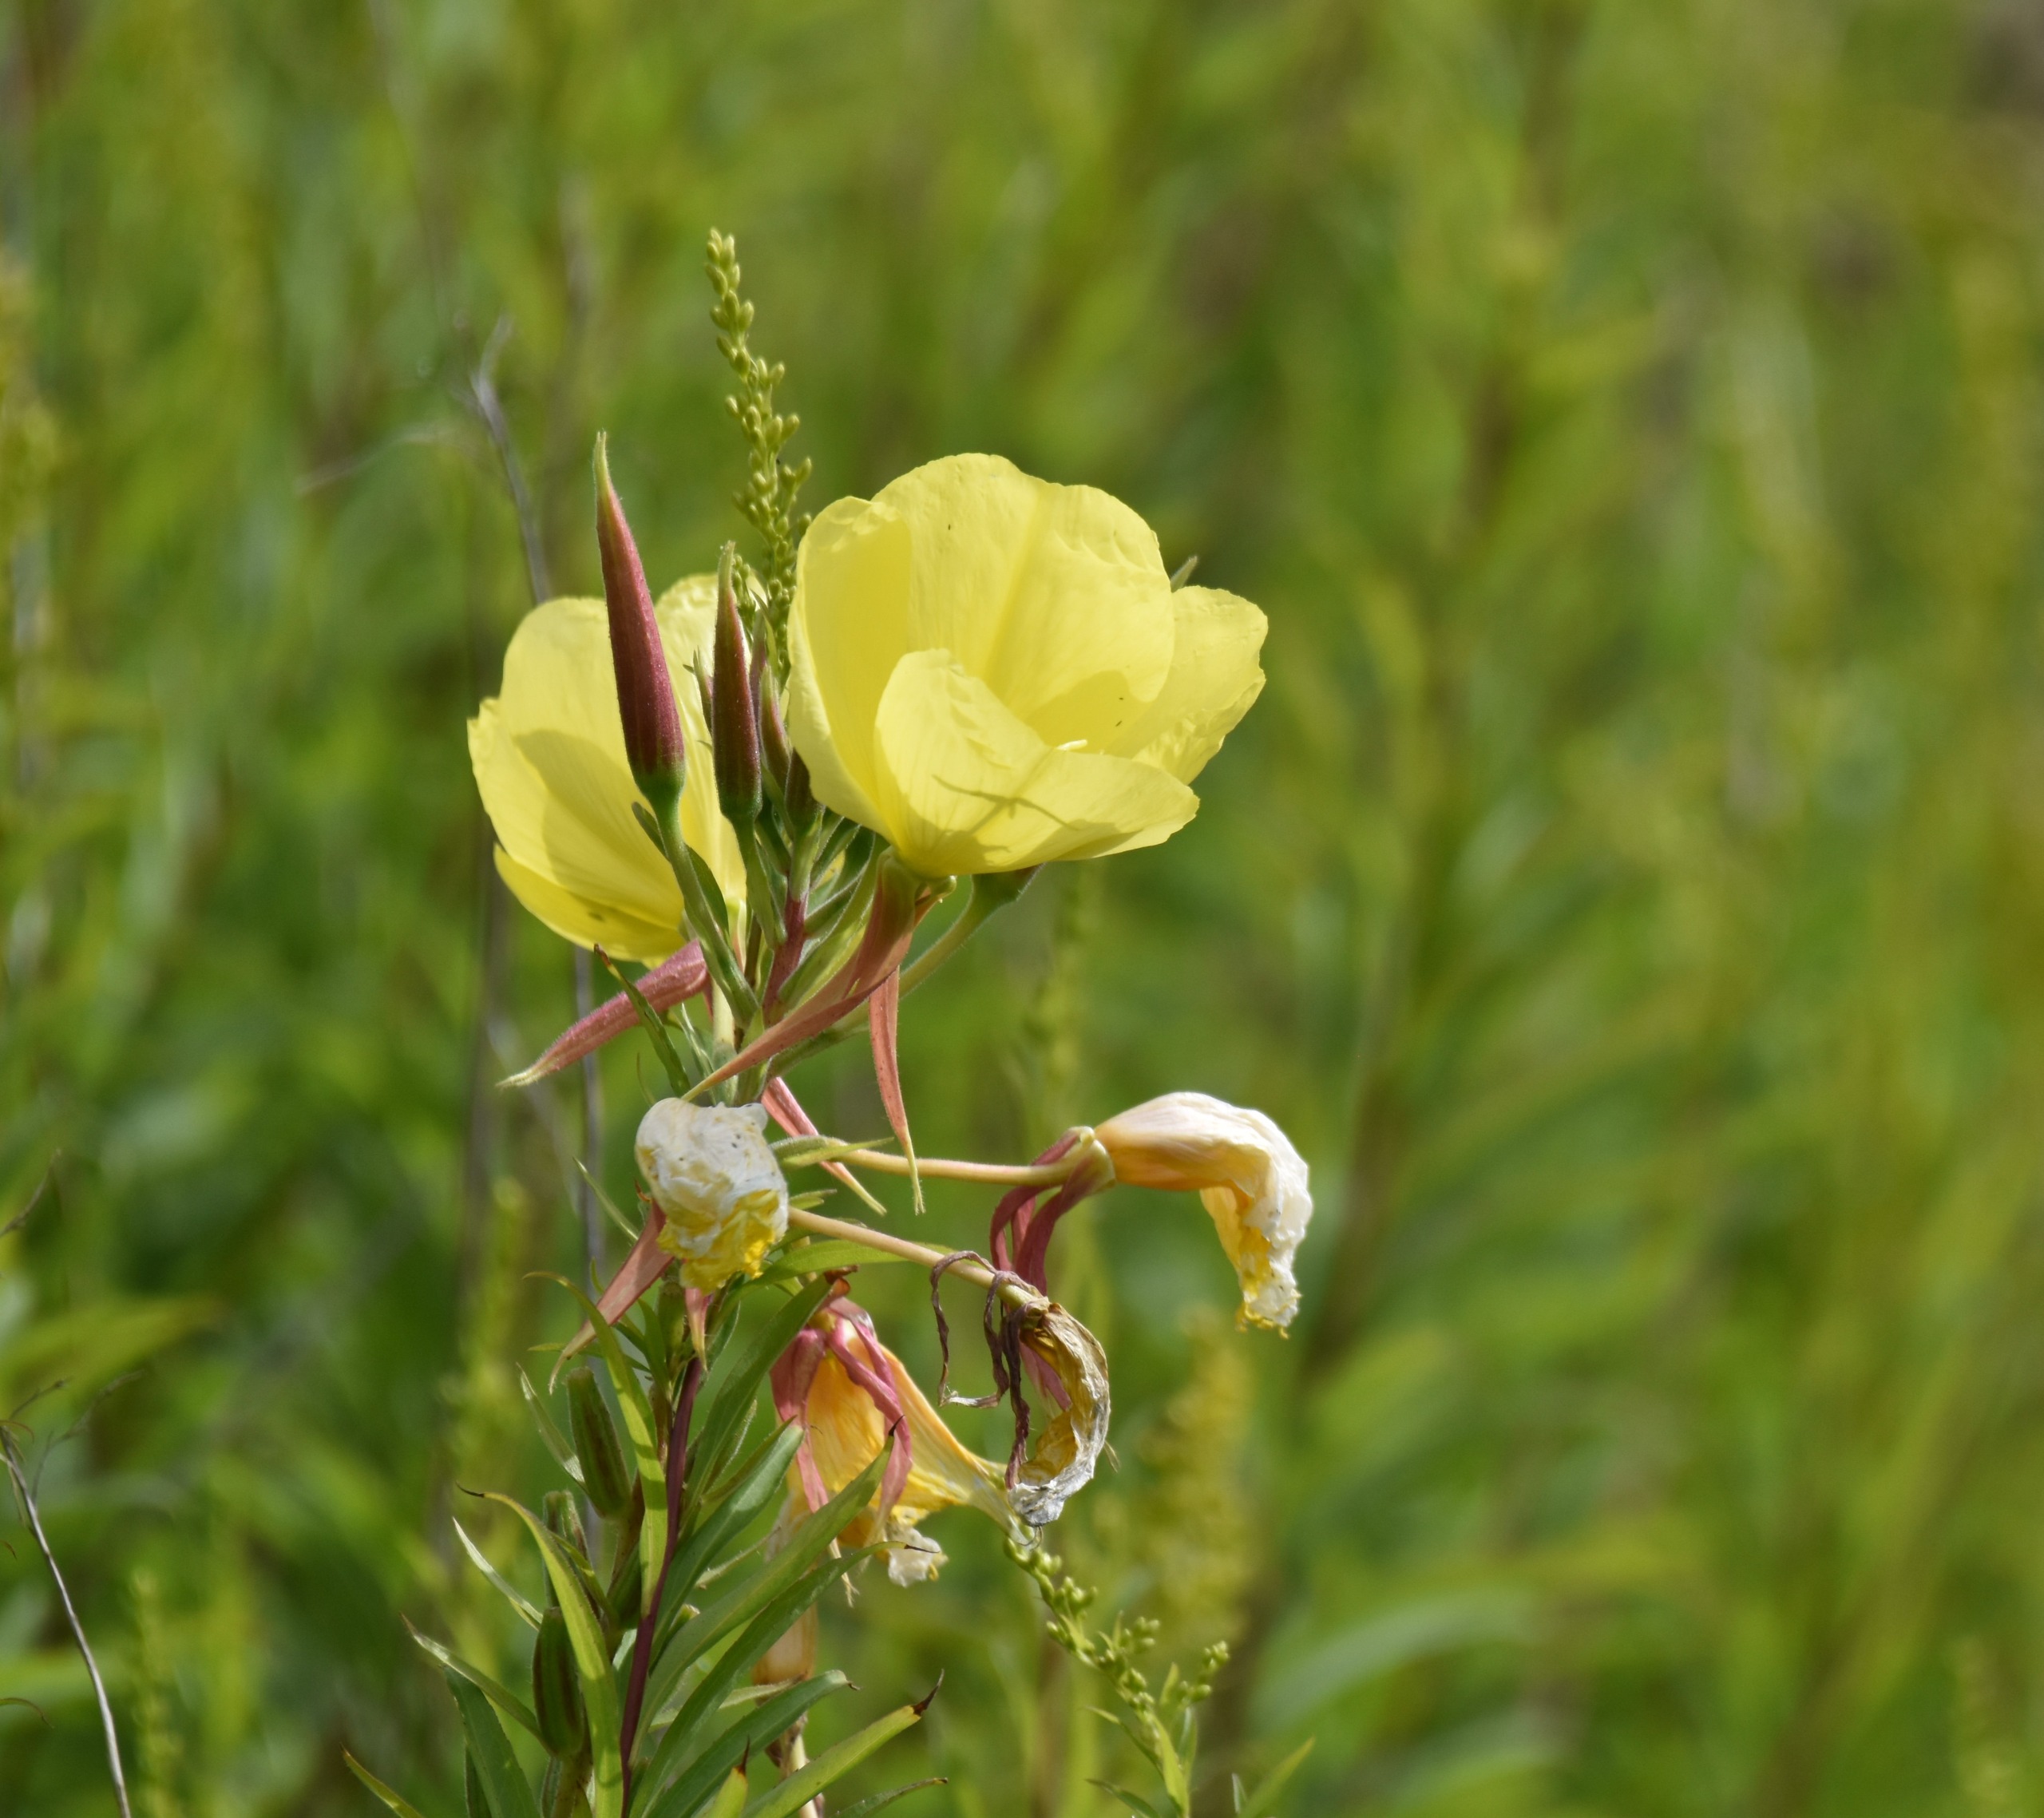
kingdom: Plantae
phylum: Tracheophyta
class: Magnoliopsida
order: Myrtales
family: Onagraceae
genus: Oenothera
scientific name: Oenothera glazioviana
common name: Kæmpe-natlys
